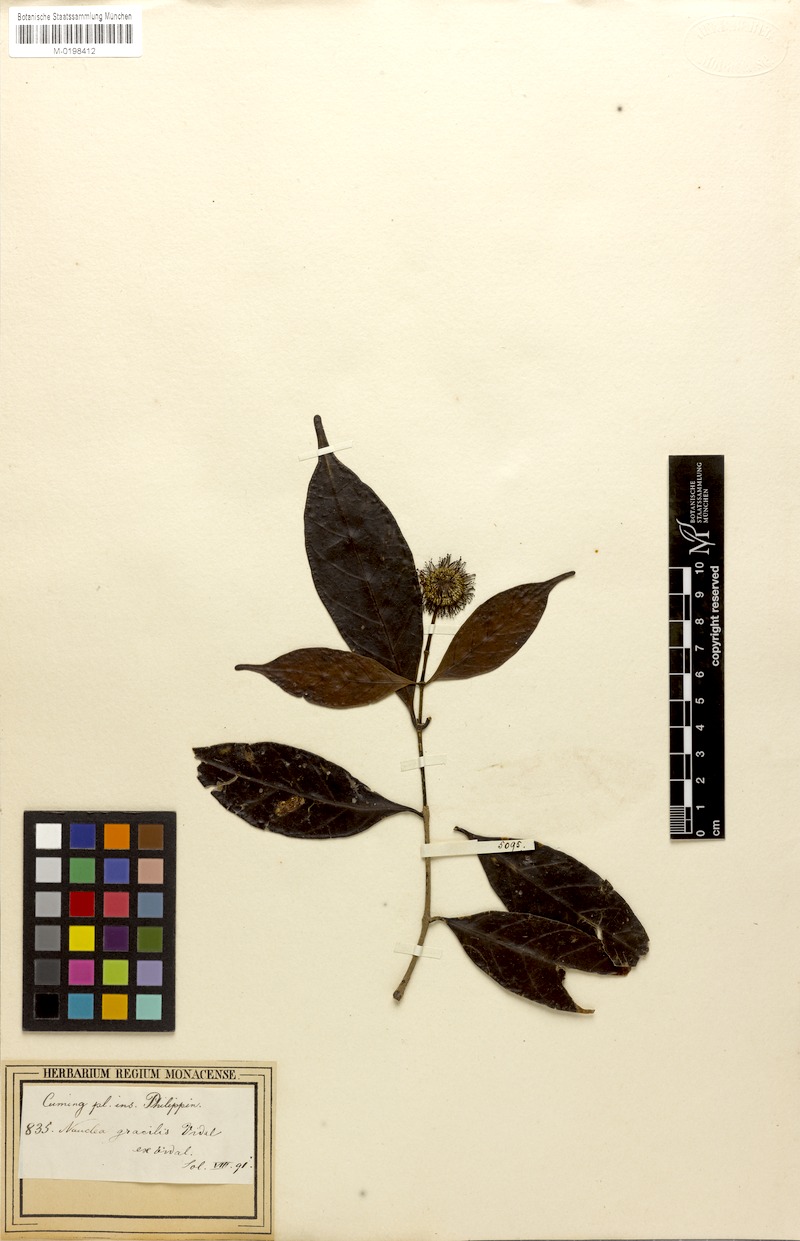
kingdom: Plantae
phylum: Tracheophyta
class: Magnoliopsida
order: Gentianales
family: Rubiaceae
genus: Neonauclea
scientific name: Neonauclea lanceolata
